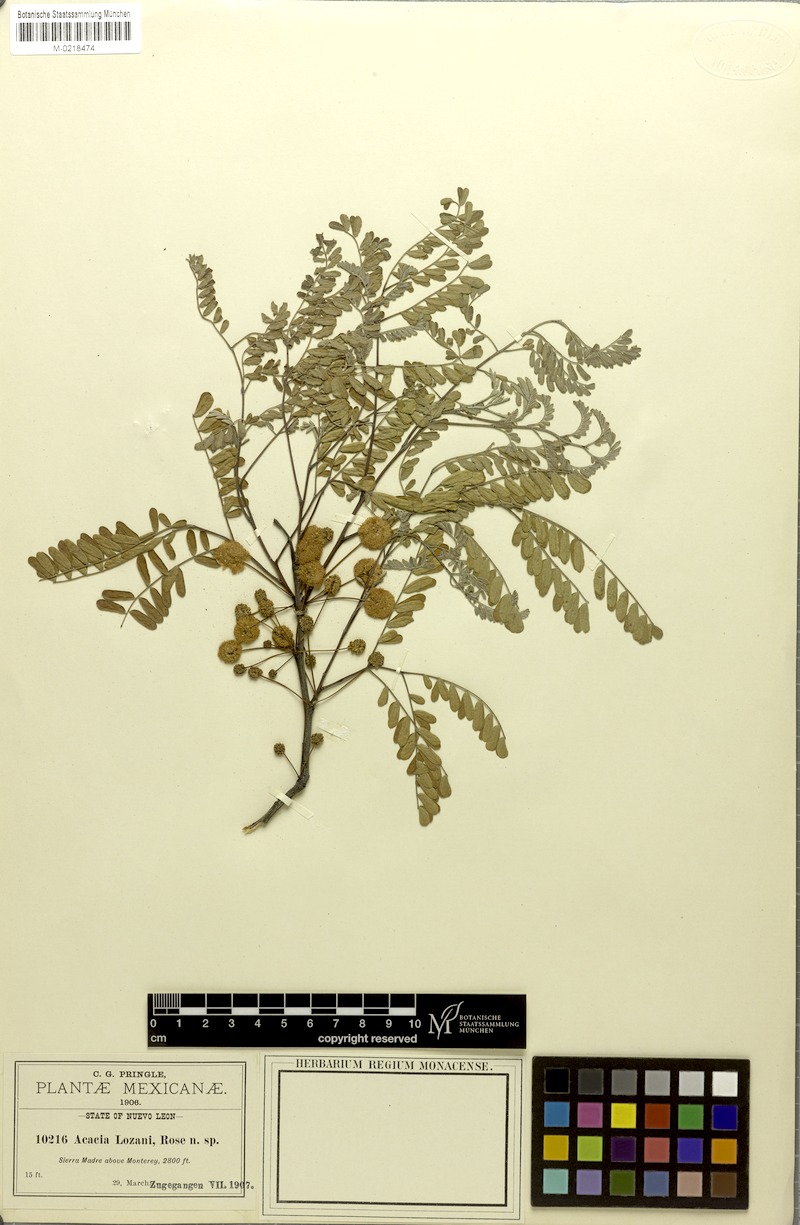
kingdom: Plantae
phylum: Tracheophyta
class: Magnoliopsida
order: Fabales
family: Fabaceae
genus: Senegalia
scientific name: Senegalia roemeriana
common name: Roemer's acacia
